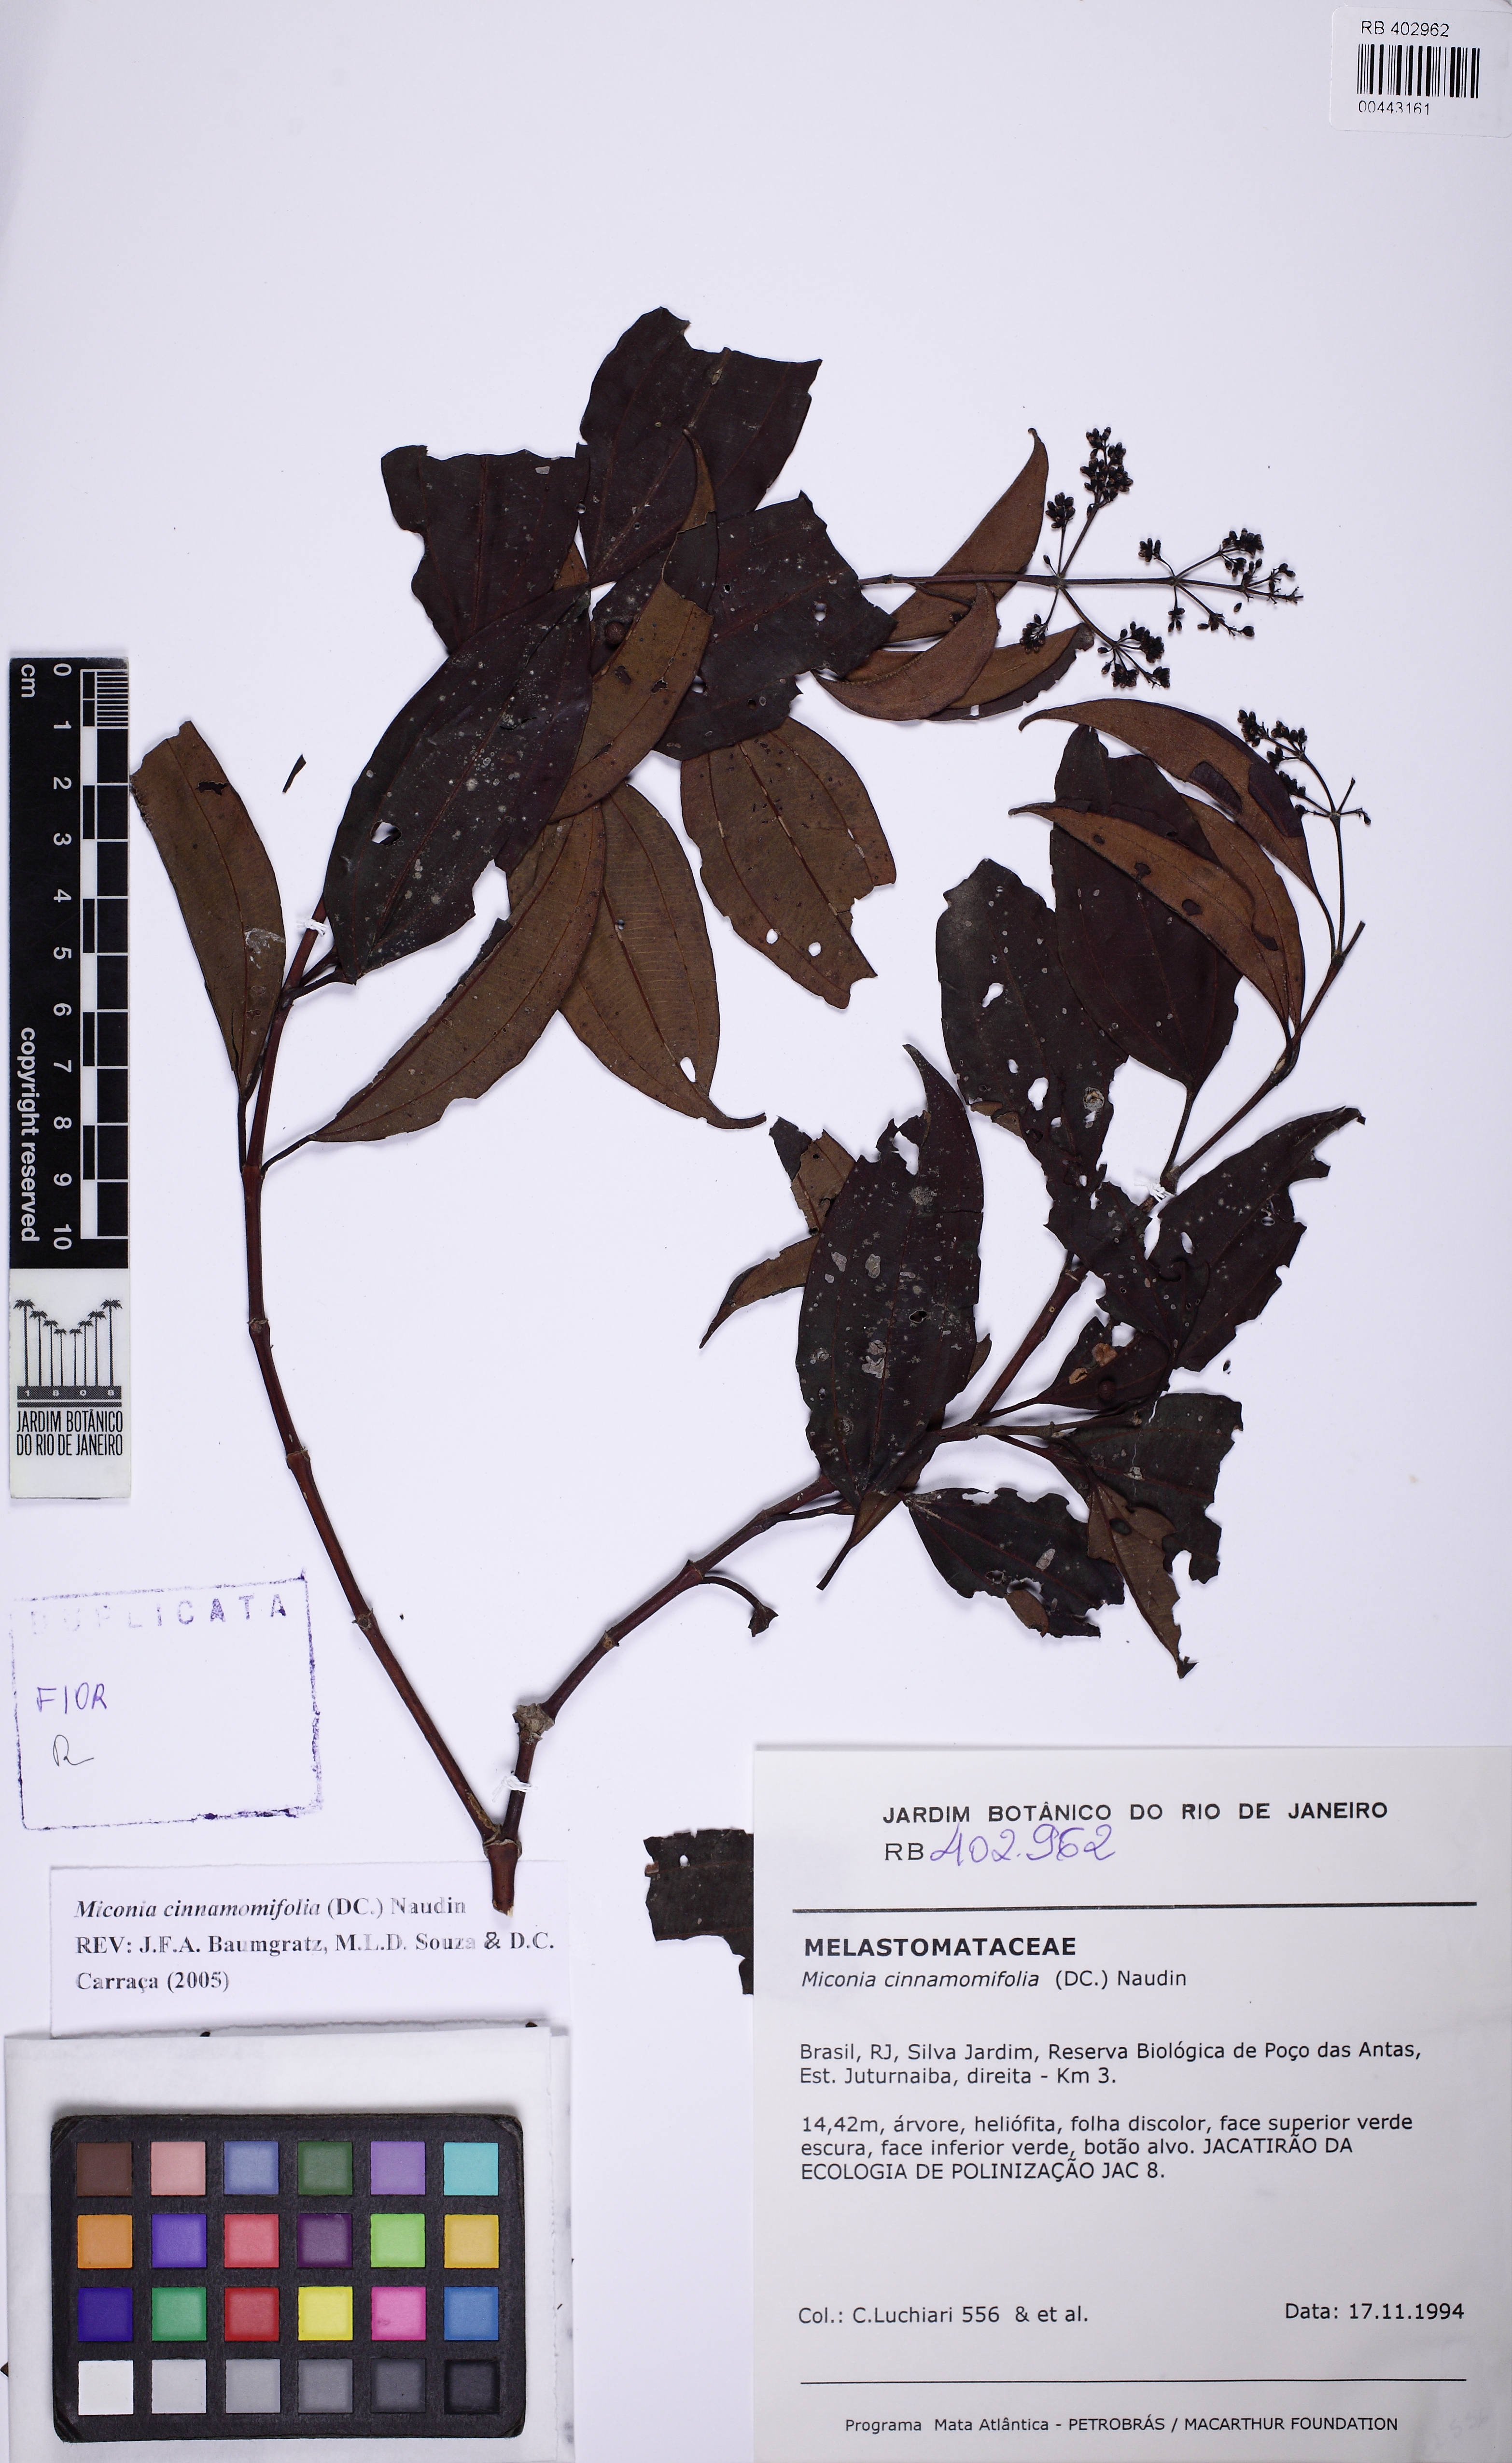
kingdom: Plantae
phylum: Tracheophyta
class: Magnoliopsida
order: Myrtales
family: Melastomataceae
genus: Miconia
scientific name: Miconia cinnamomifolia
